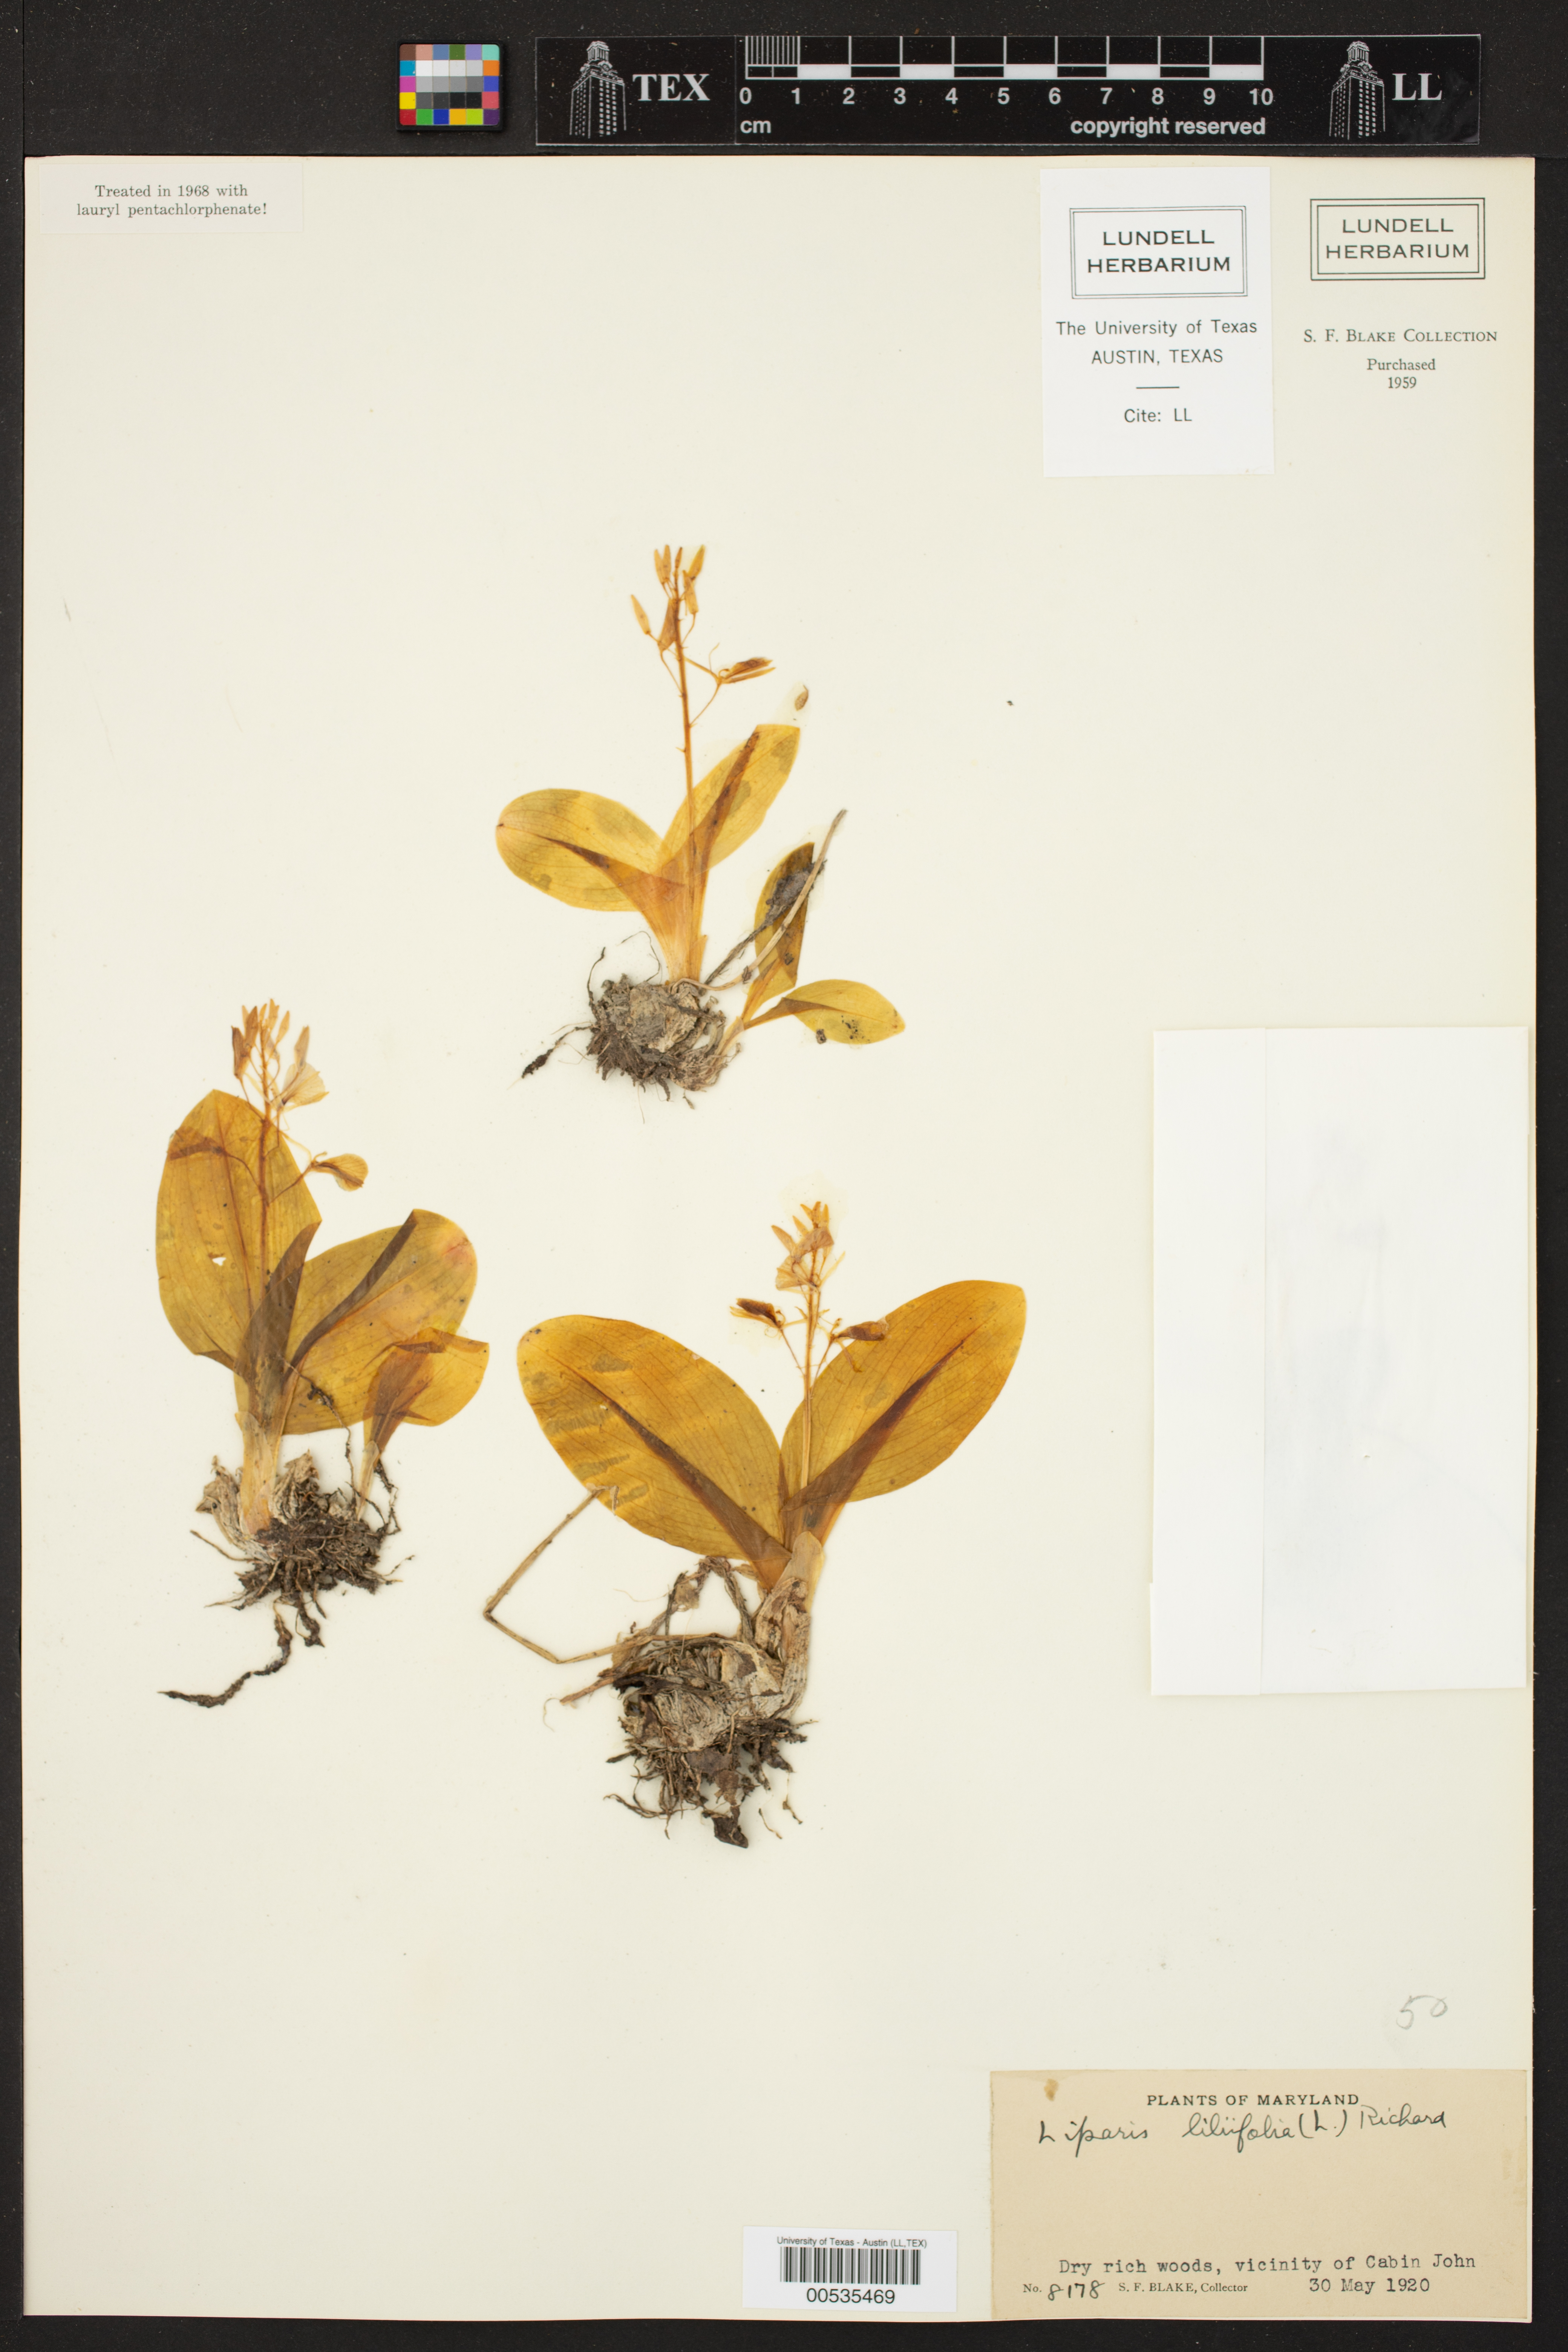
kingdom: Plantae
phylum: Tracheophyta
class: Liliopsida
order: Asparagales
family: Orchidaceae
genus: Liparis
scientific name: Liparis liliifolia
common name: Brown wide-lip orchid
